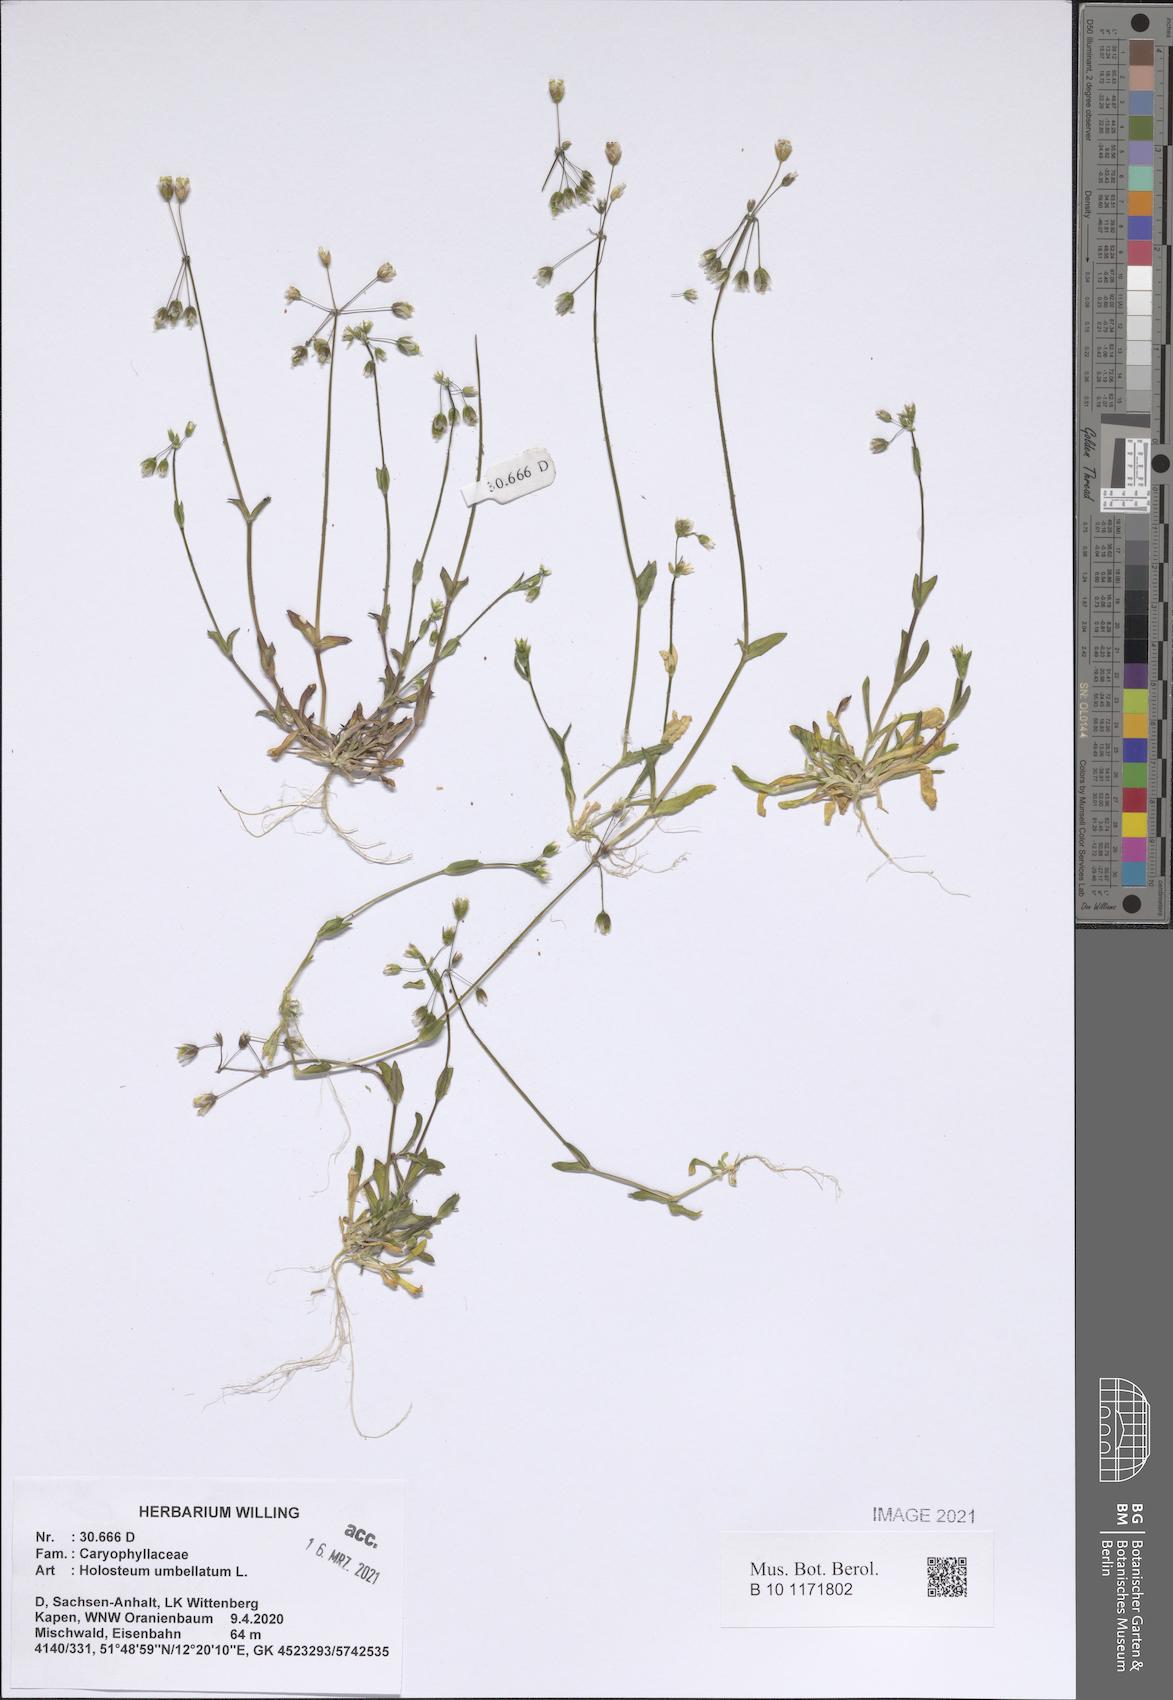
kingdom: Plantae
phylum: Tracheophyta
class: Magnoliopsida
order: Caryophyllales
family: Caryophyllaceae
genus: Holosteum
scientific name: Holosteum umbellatum
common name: Jagged chickweed
